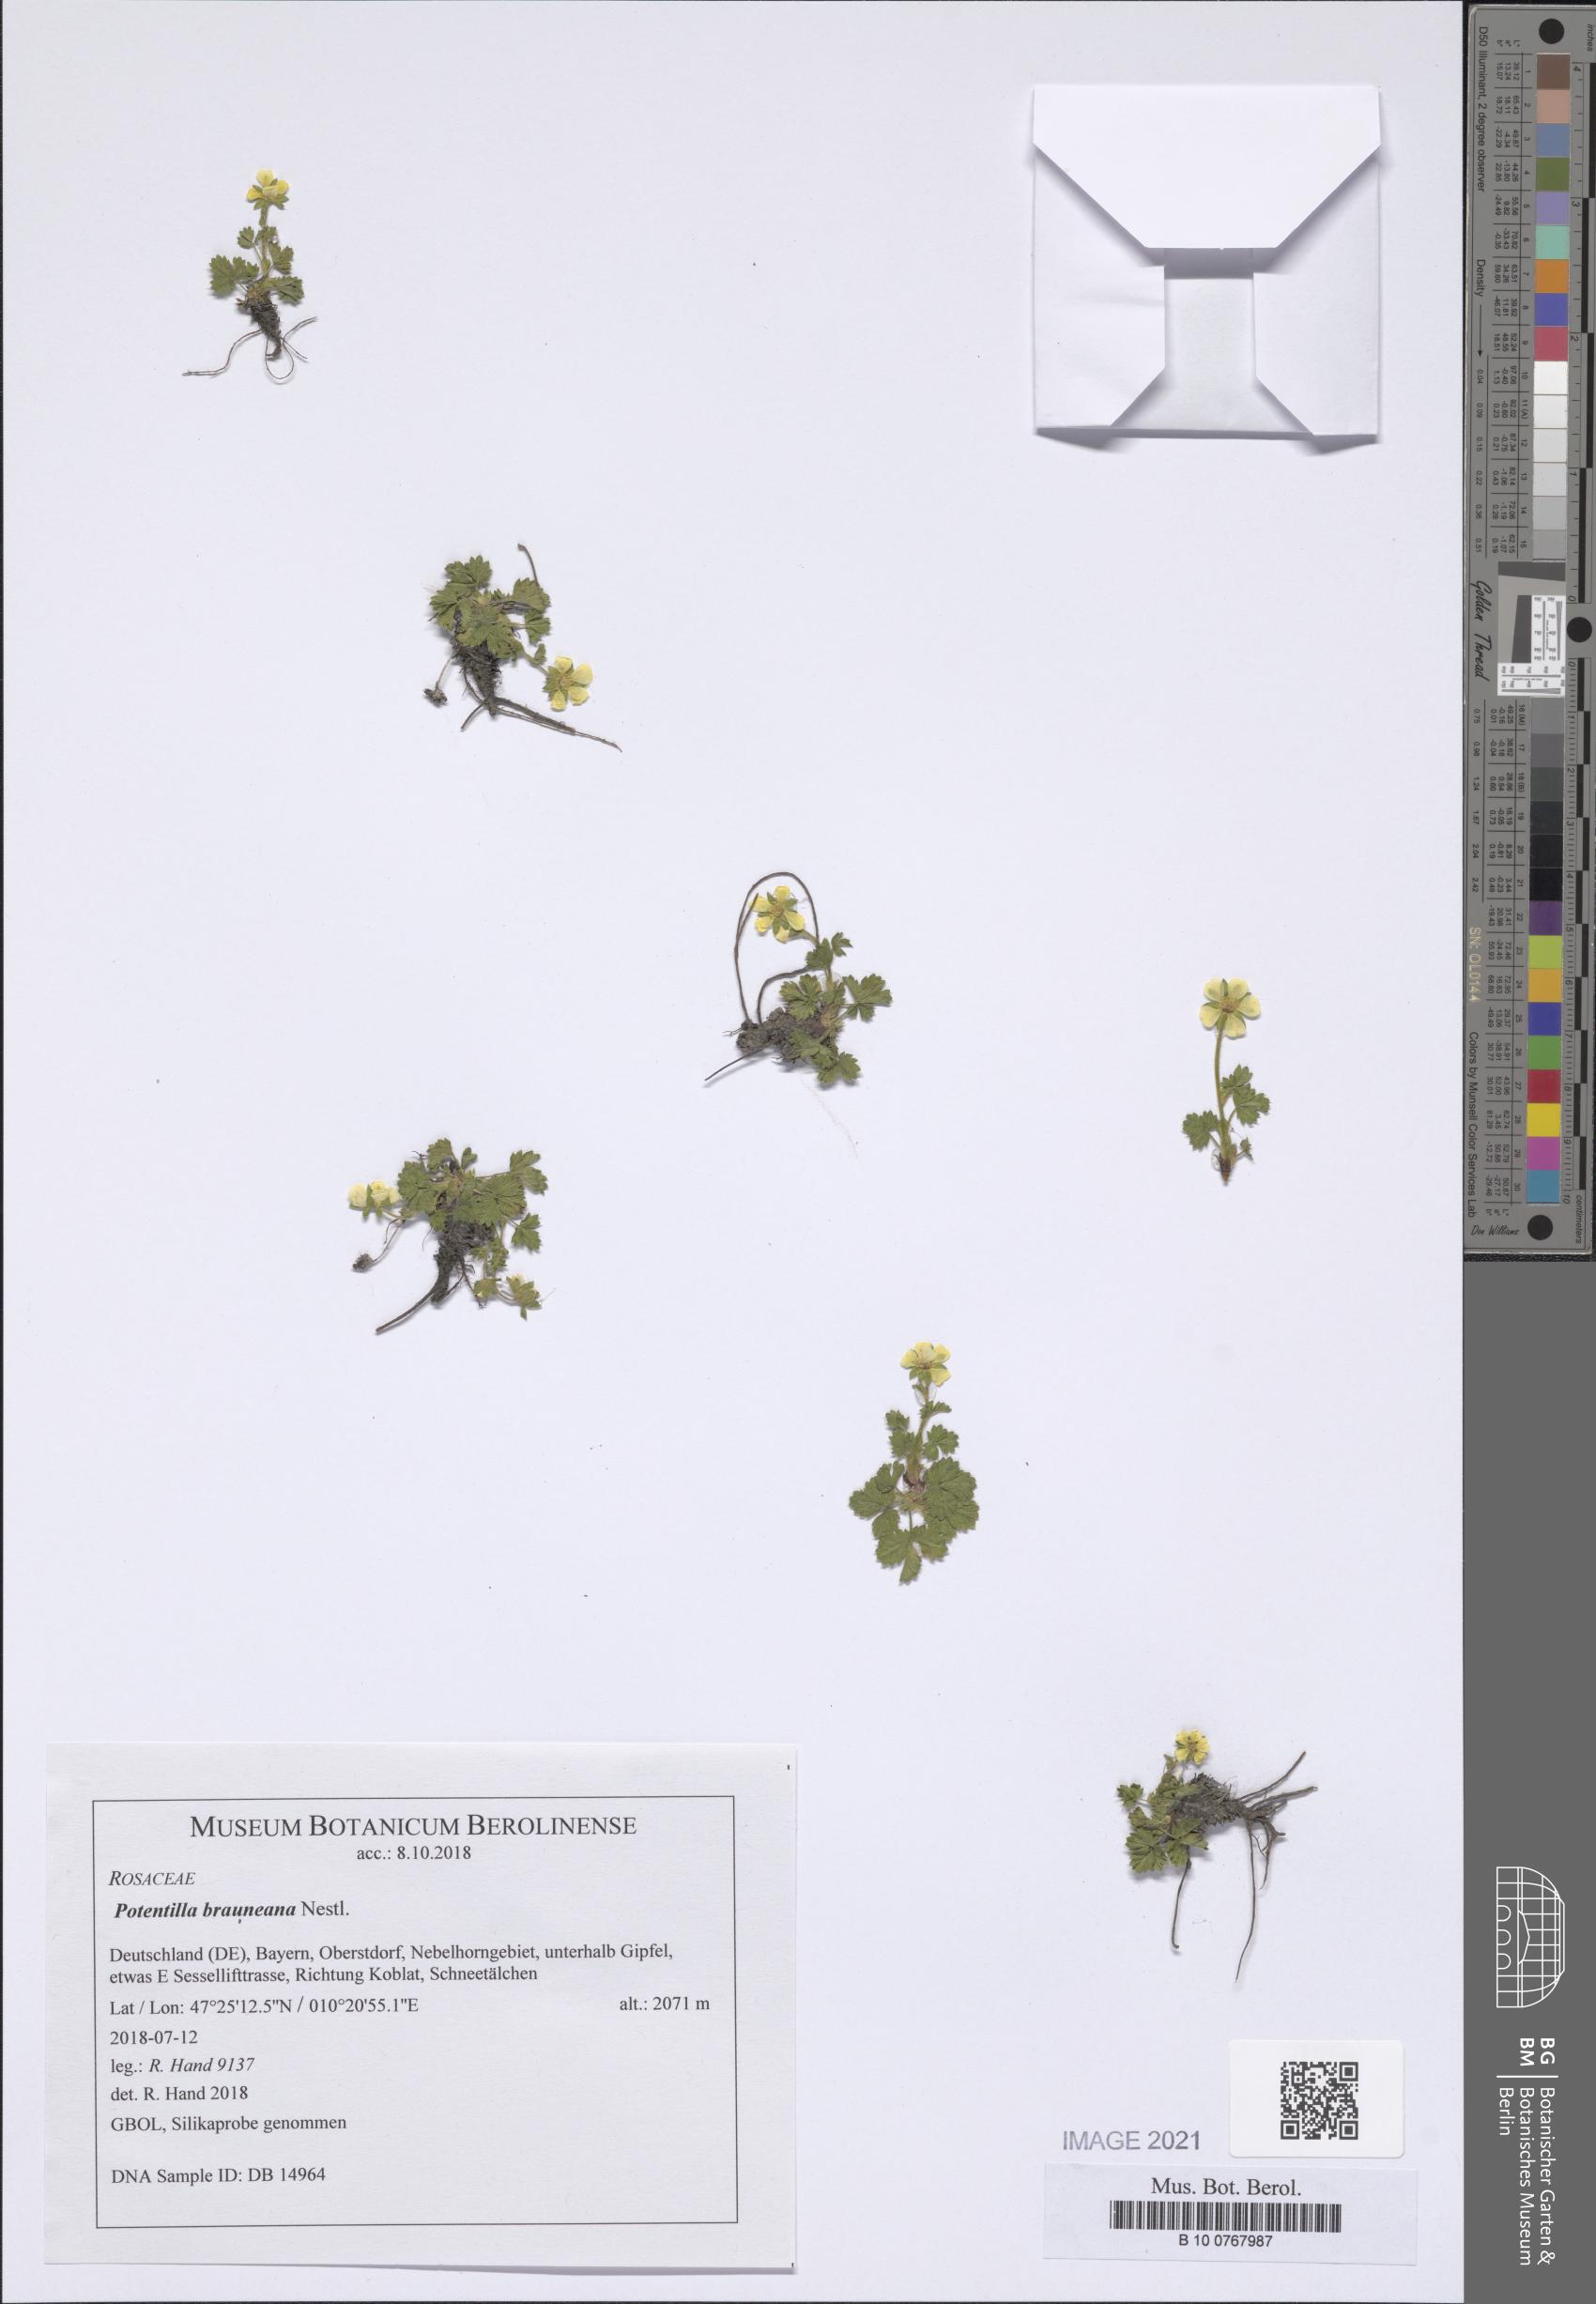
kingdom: Plantae
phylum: Tracheophyta
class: Magnoliopsida
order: Rosales
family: Rosaceae
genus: Potentilla
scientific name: Potentilla brauneana
